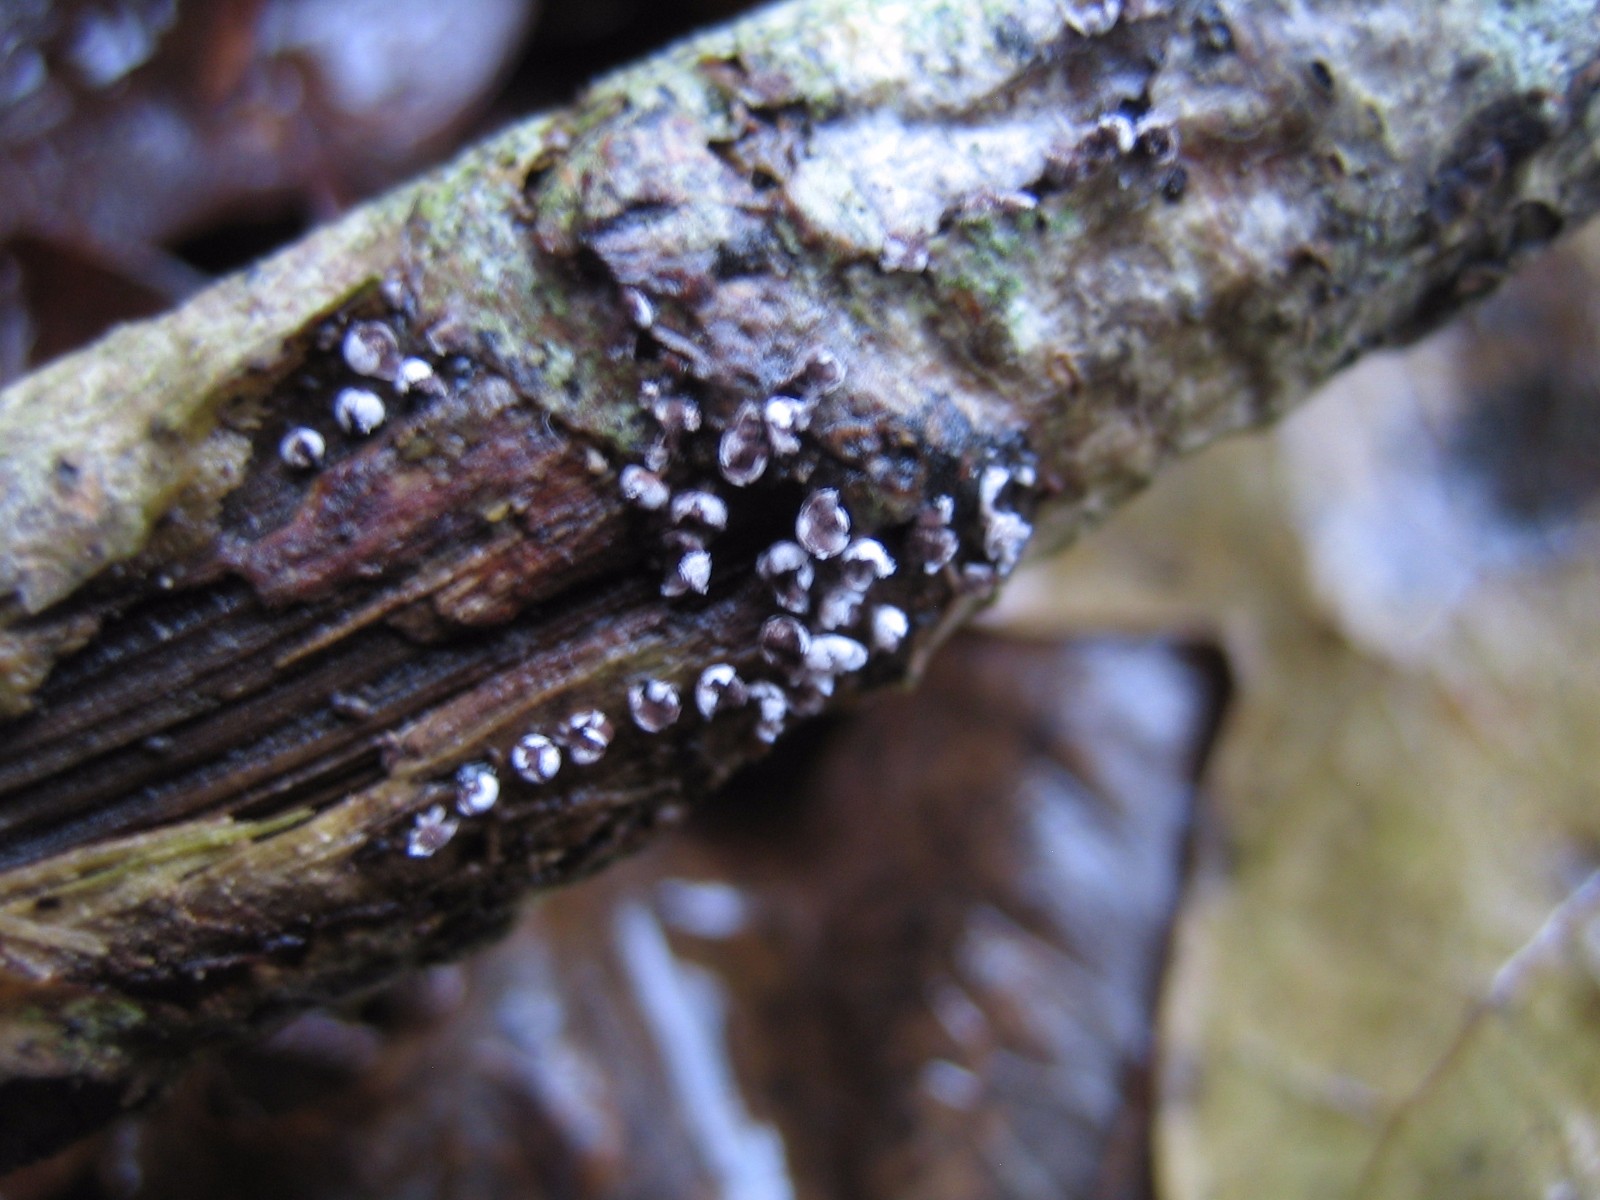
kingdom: Protozoa
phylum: Mycetozoa
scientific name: Mycetozoa
